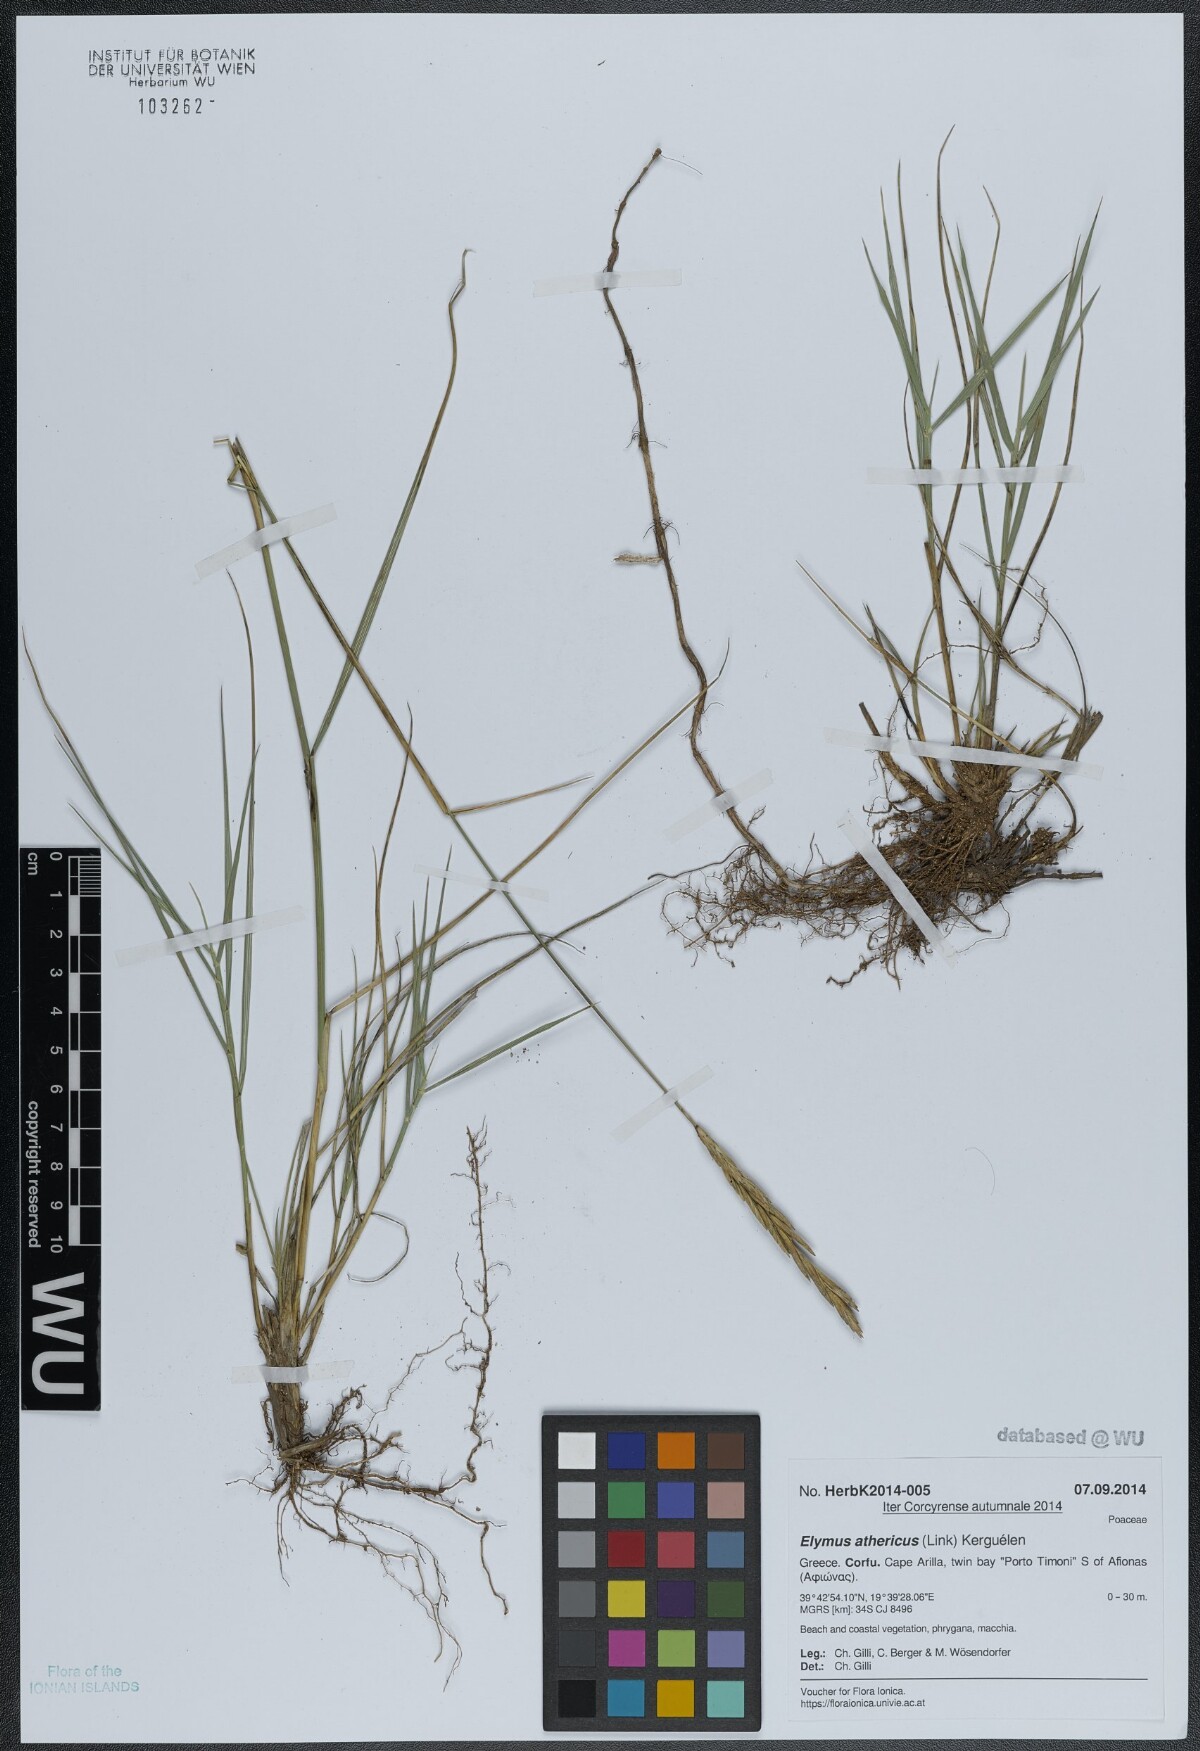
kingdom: Plantae
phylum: Tracheophyta
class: Liliopsida
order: Poales
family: Poaceae
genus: Elymus
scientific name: Elymus athericus
